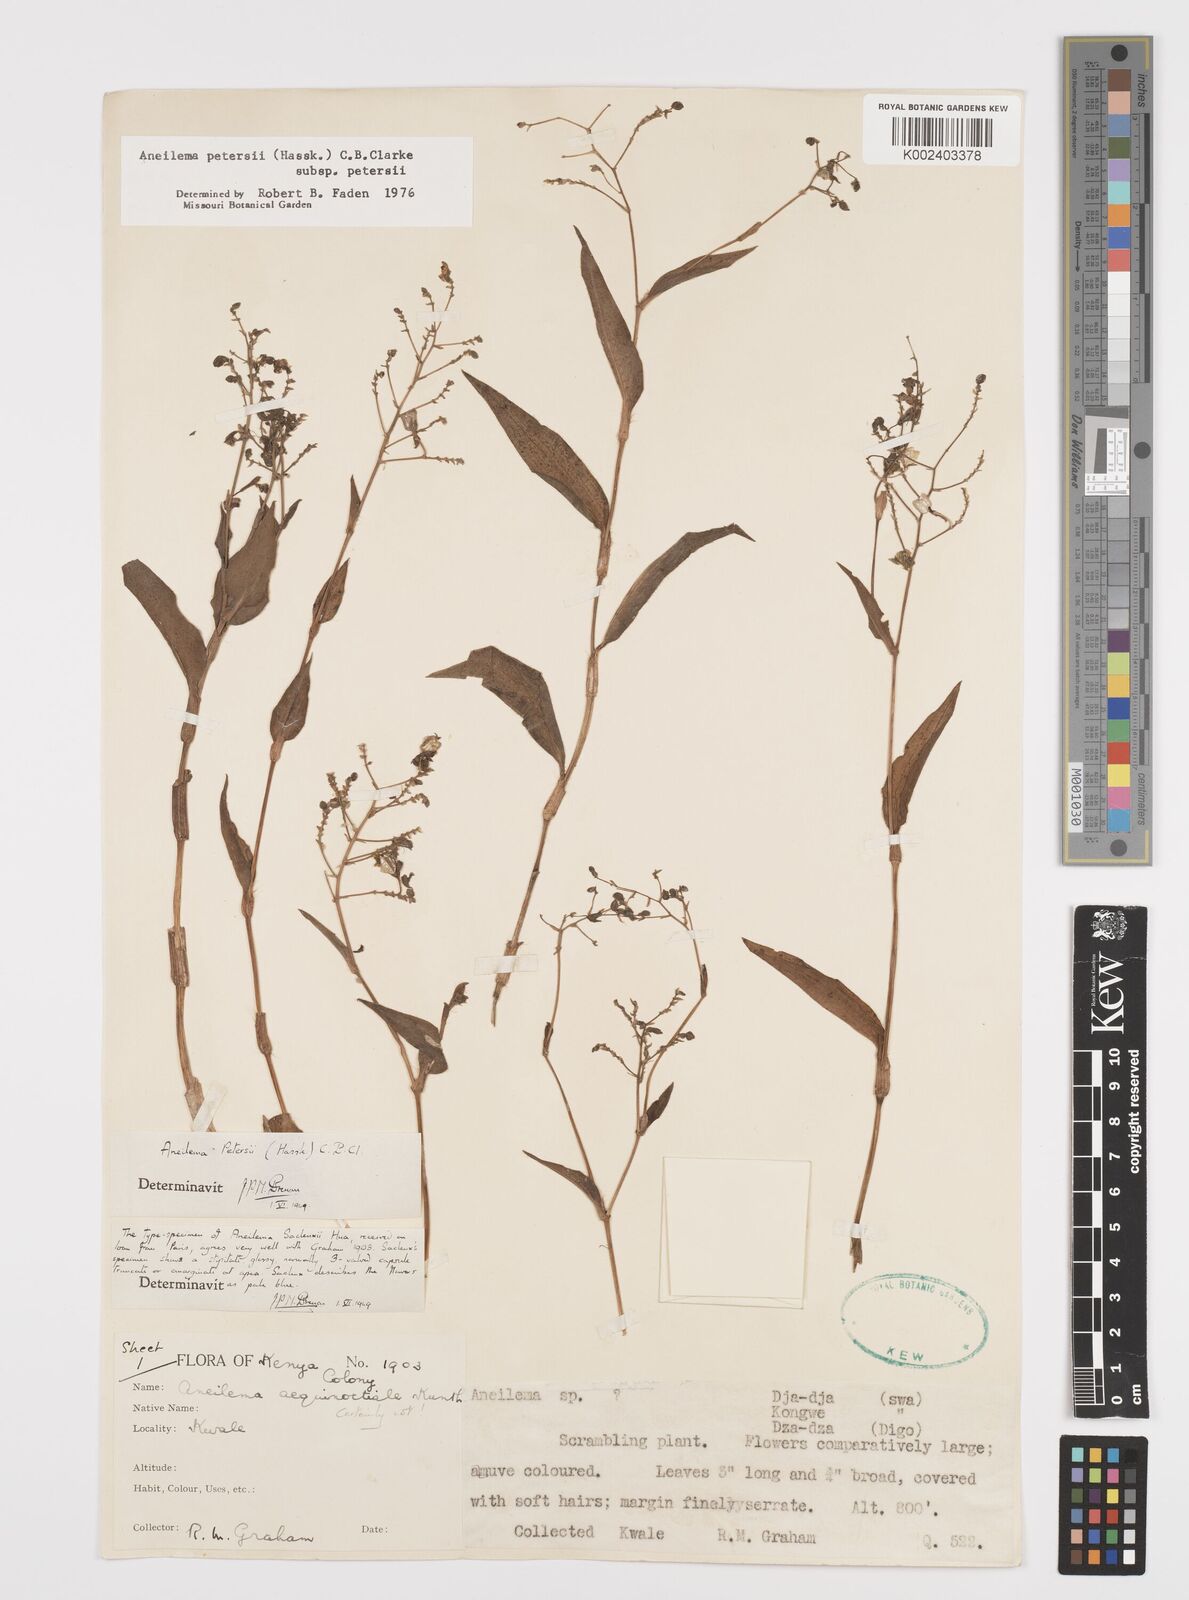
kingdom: Plantae
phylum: Tracheophyta
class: Liliopsida
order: Commelinales
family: Commelinaceae
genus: Aneilema
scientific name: Aneilema petersii
